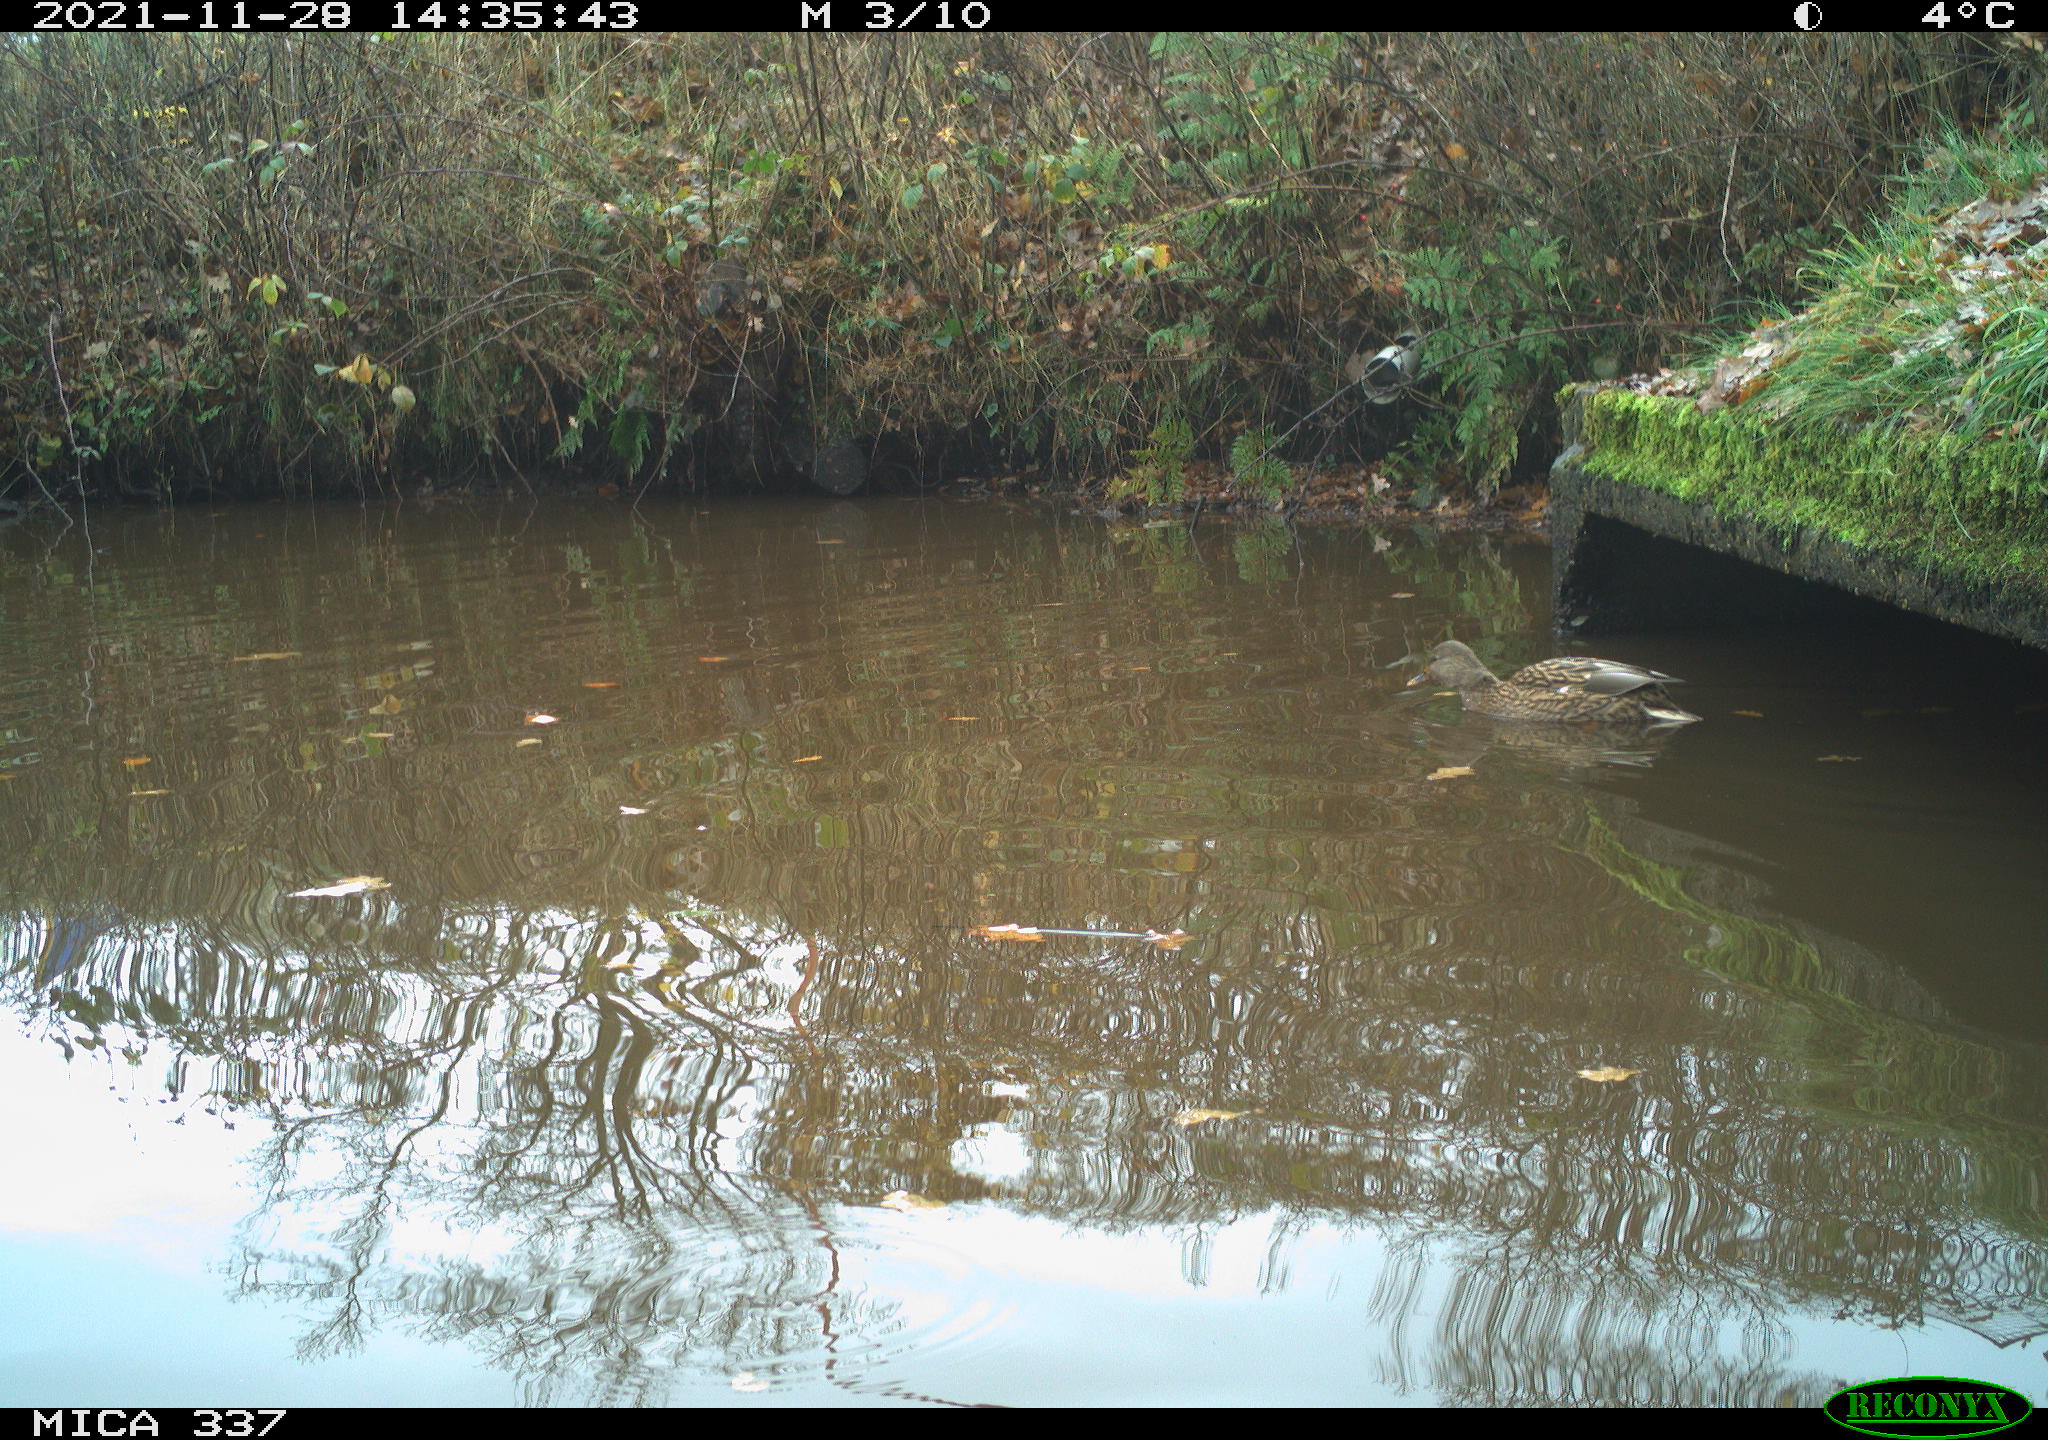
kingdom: Animalia
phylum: Chordata
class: Aves
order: Anseriformes
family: Anatidae
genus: Anas
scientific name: Anas platyrhynchos
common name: Mallard
